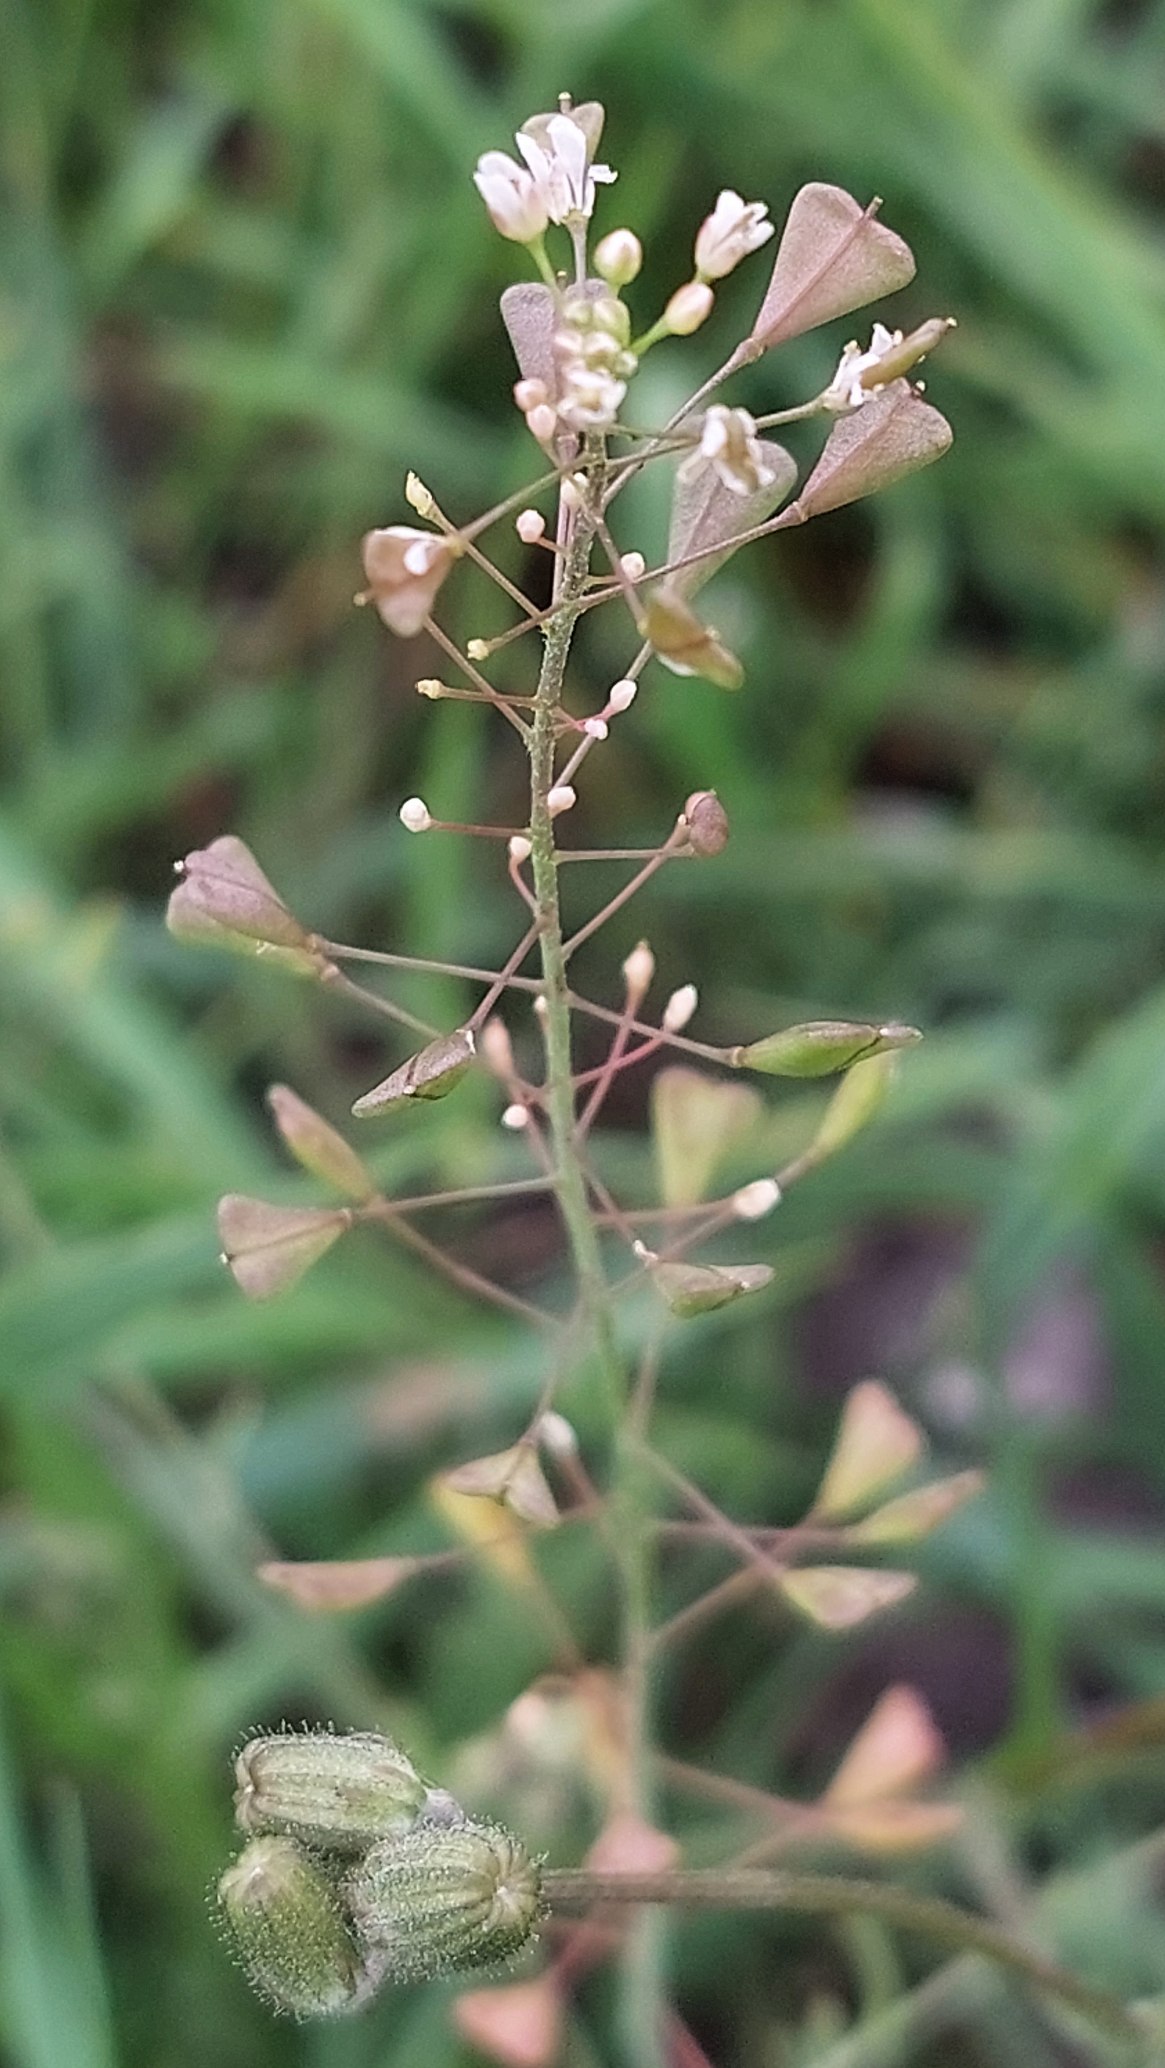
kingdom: Plantae
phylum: Tracheophyta
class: Magnoliopsida
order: Brassicales
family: Brassicaceae
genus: Capsella
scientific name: Capsella bursa-pastoris
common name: Hyrdetaske
